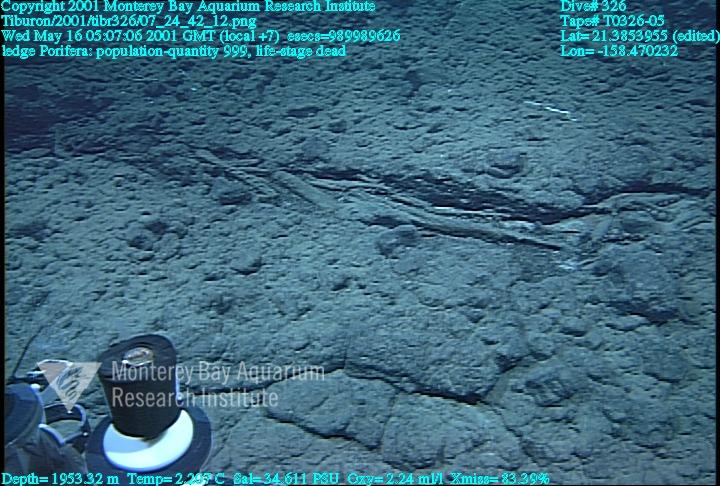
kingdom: Animalia
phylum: Porifera
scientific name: Porifera
